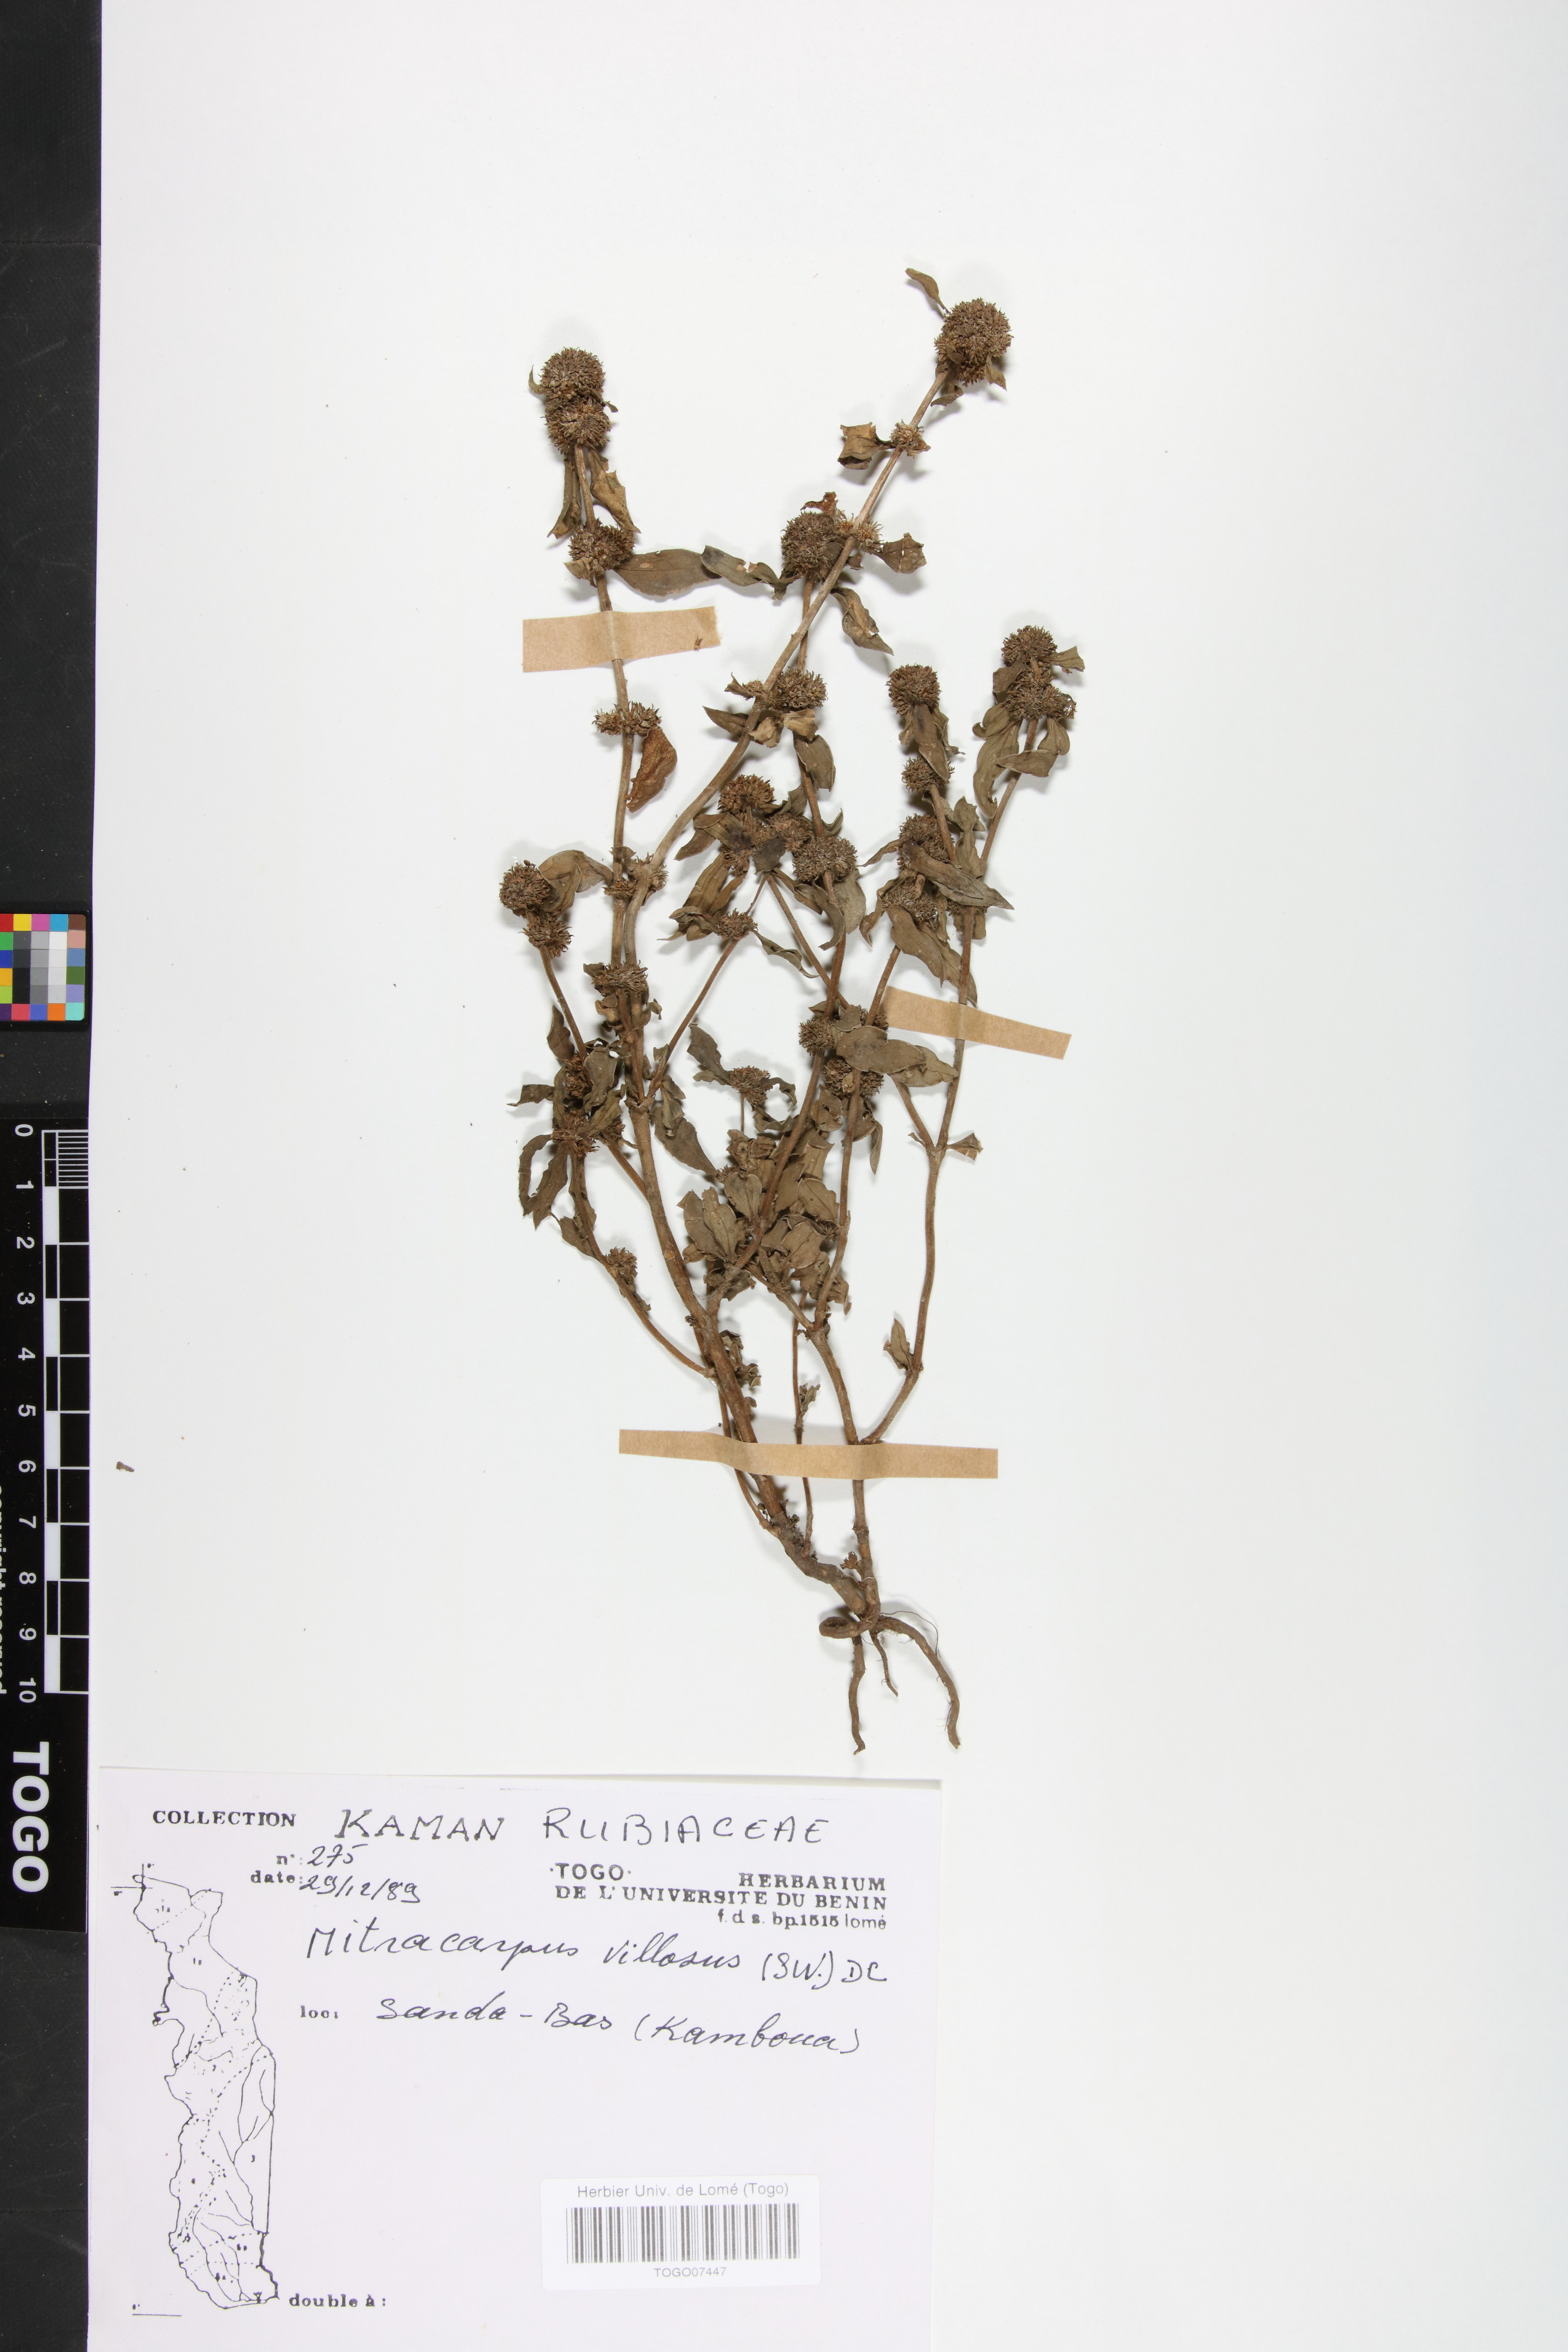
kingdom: Plantae
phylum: Tracheophyta
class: Magnoliopsida
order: Gentianales
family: Rubiaceae
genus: Mitracarpus
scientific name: Mitracarpus hirtus
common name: Tropical girdlepod
